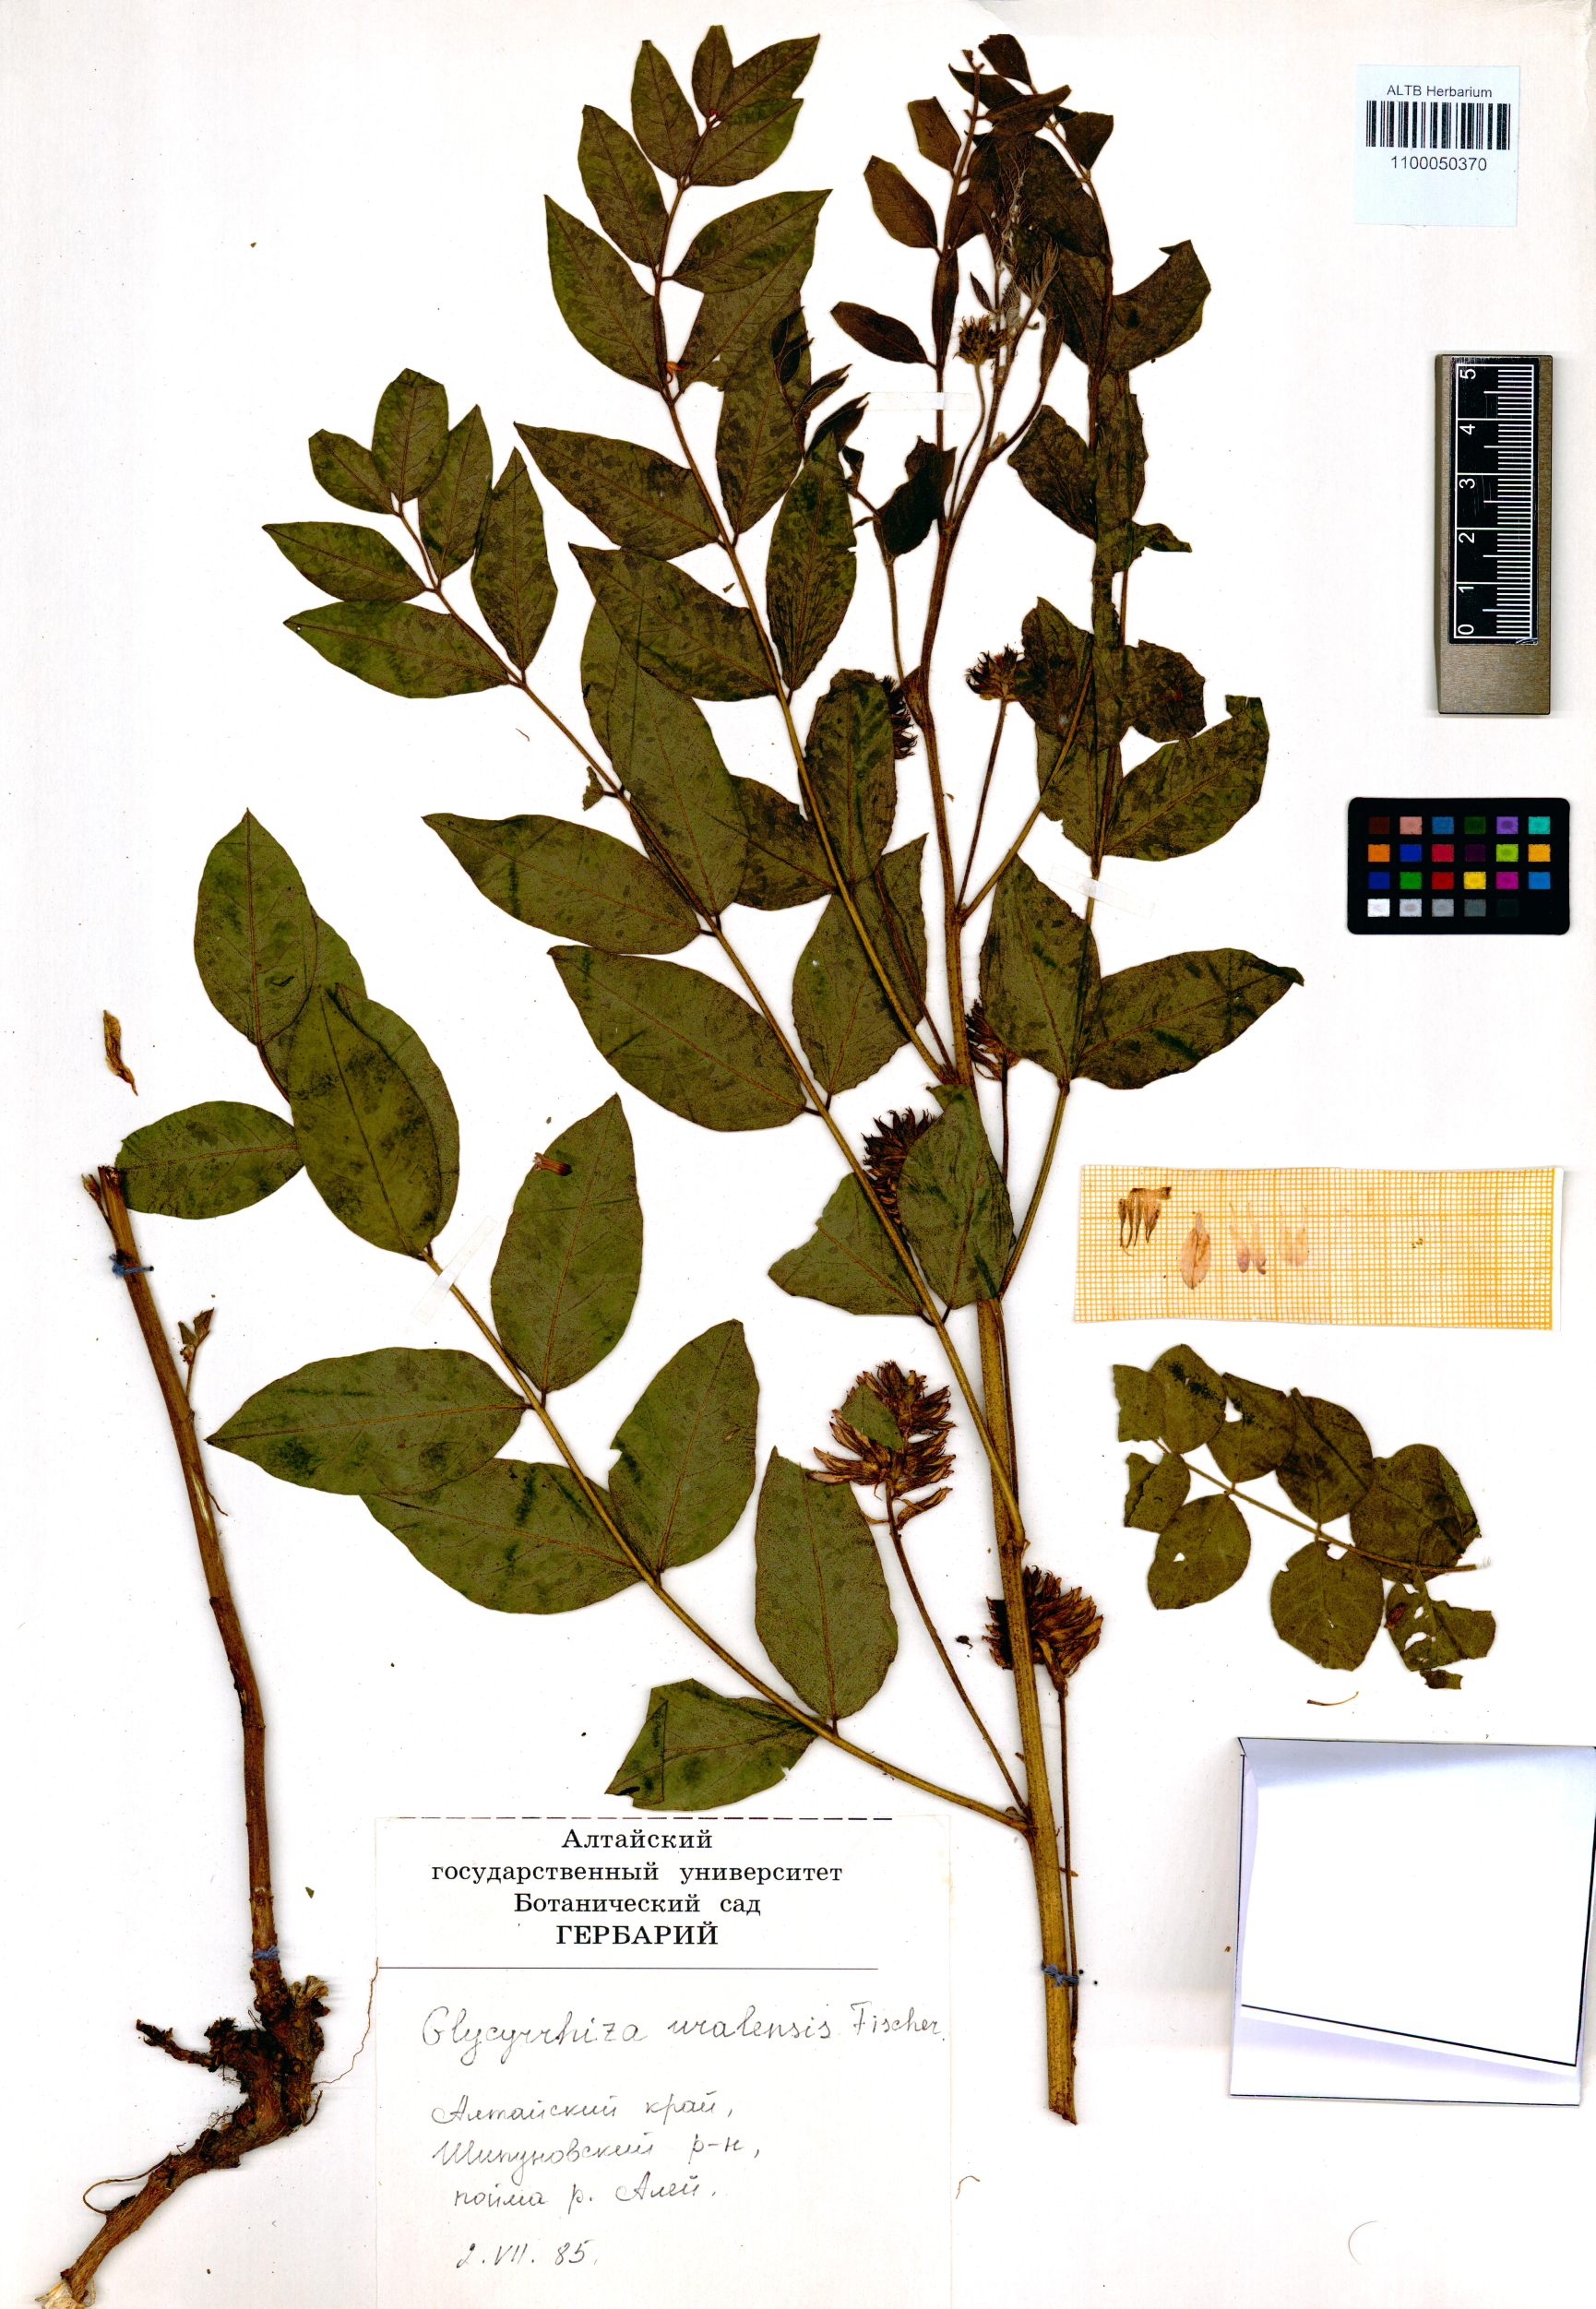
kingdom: Plantae
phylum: Tracheophyta
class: Magnoliopsida
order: Fabales
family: Fabaceae
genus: Glycyrrhiza
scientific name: Glycyrrhiza uralensis
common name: Chinese licorice
